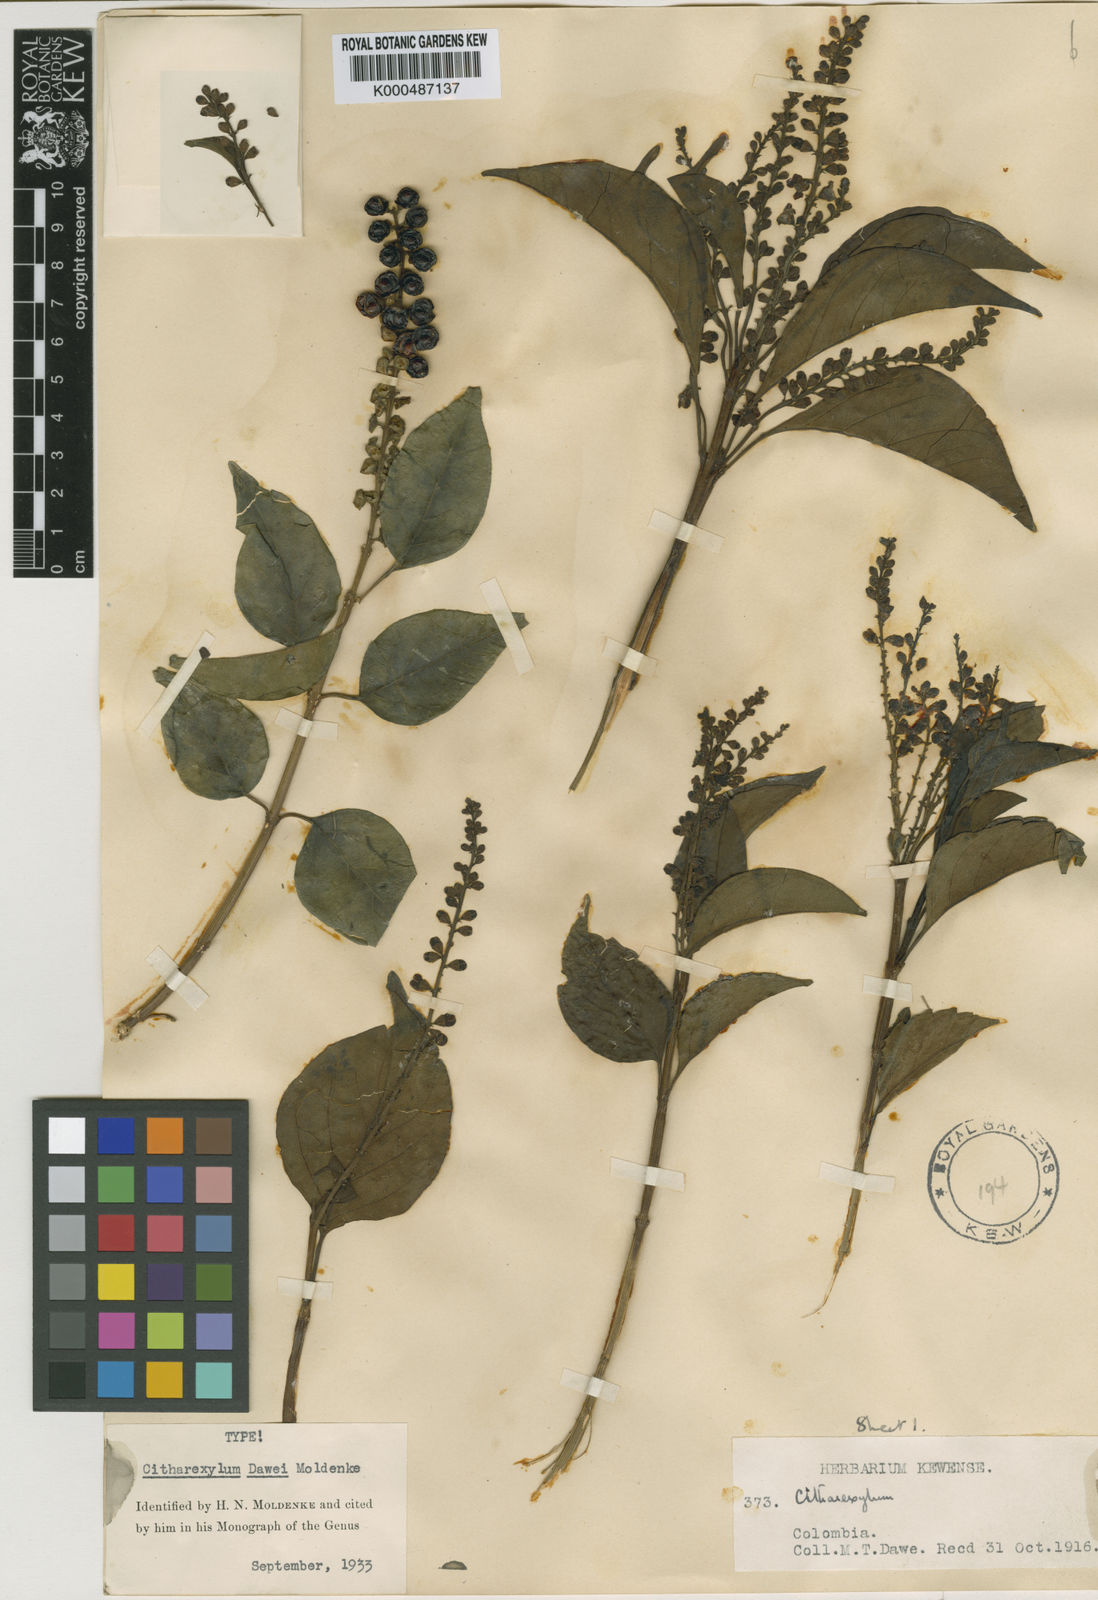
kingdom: Plantae
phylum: Tracheophyta
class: Magnoliopsida
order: Lamiales
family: Verbenaceae
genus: Citharexylum
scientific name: Citharexylum karstenii
